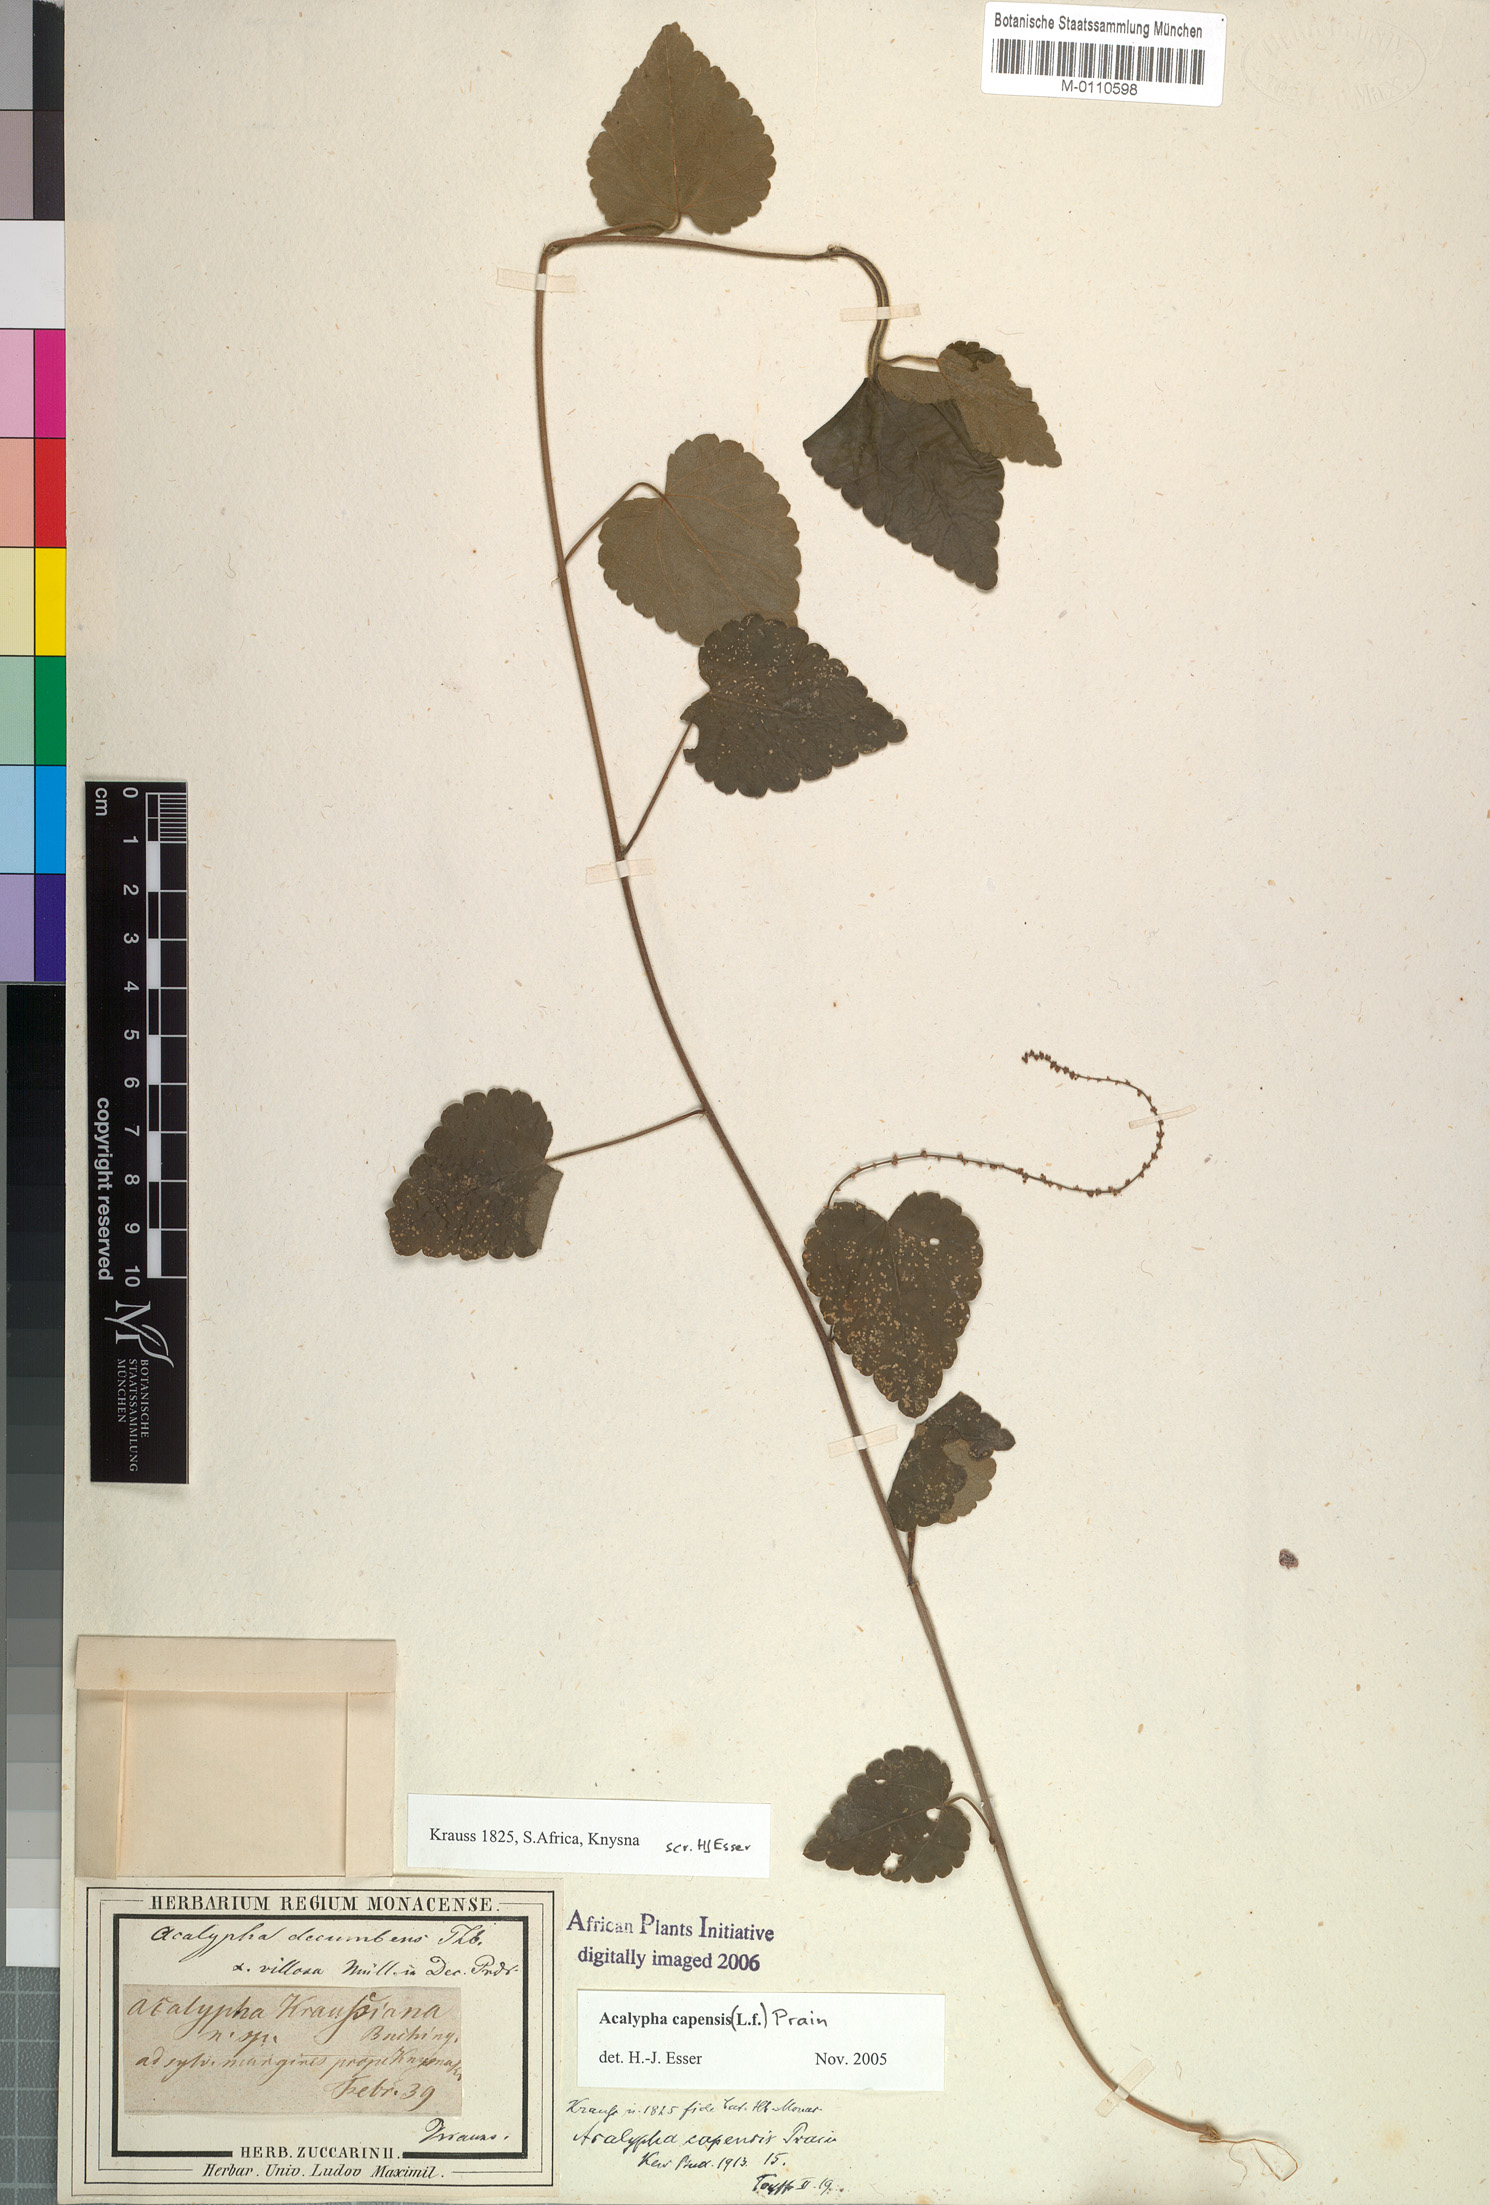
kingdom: Plantae
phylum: Tracheophyta
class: Magnoliopsida
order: Rosales
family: Urticaceae
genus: Didymodoxa
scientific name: Didymodoxa capensis
